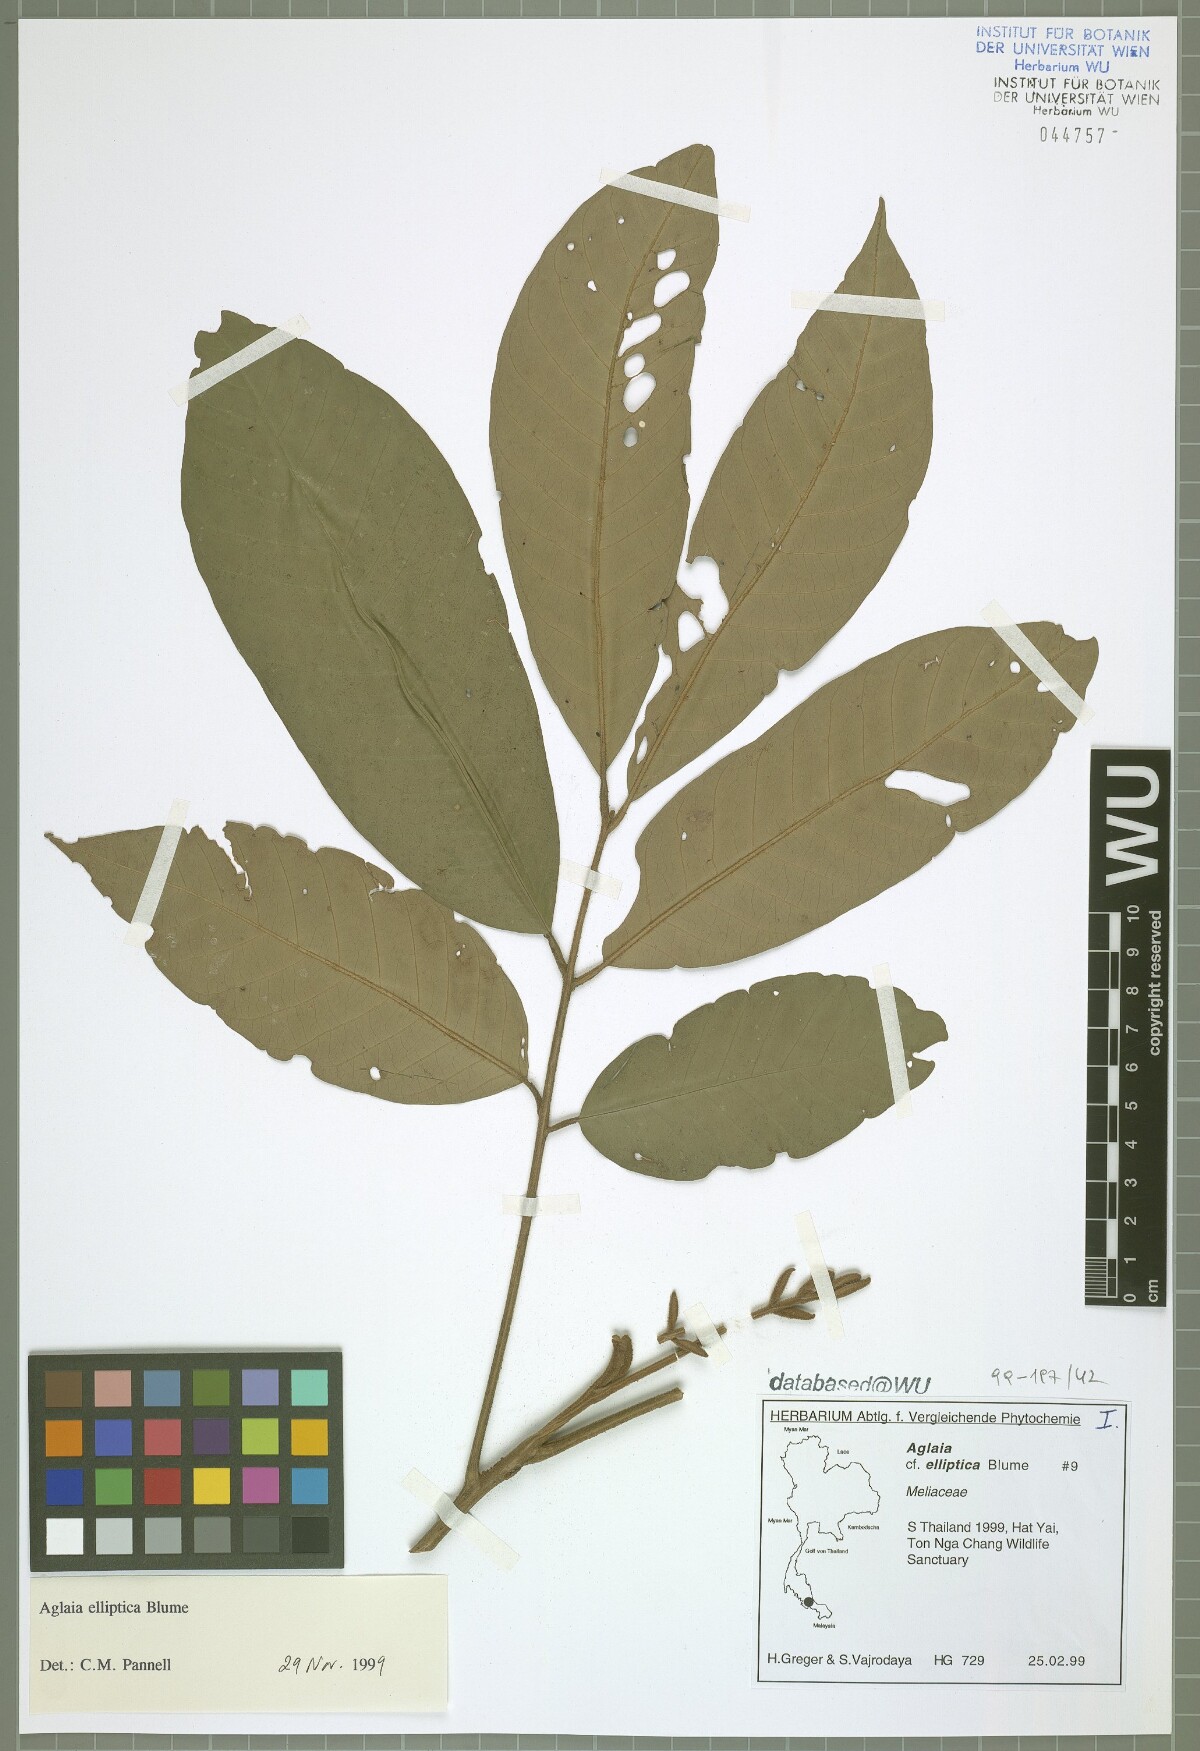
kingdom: Plantae
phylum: Tracheophyta
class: Magnoliopsida
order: Sapindales
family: Meliaceae
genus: Aglaia
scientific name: Aglaia elliptica
